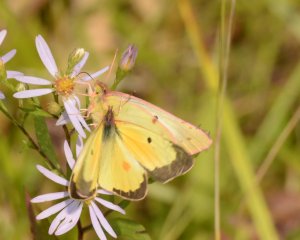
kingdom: Animalia
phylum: Arthropoda
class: Insecta
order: Lepidoptera
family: Pieridae
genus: Colias
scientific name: Colias eurytheme
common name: Orange Sulphur
